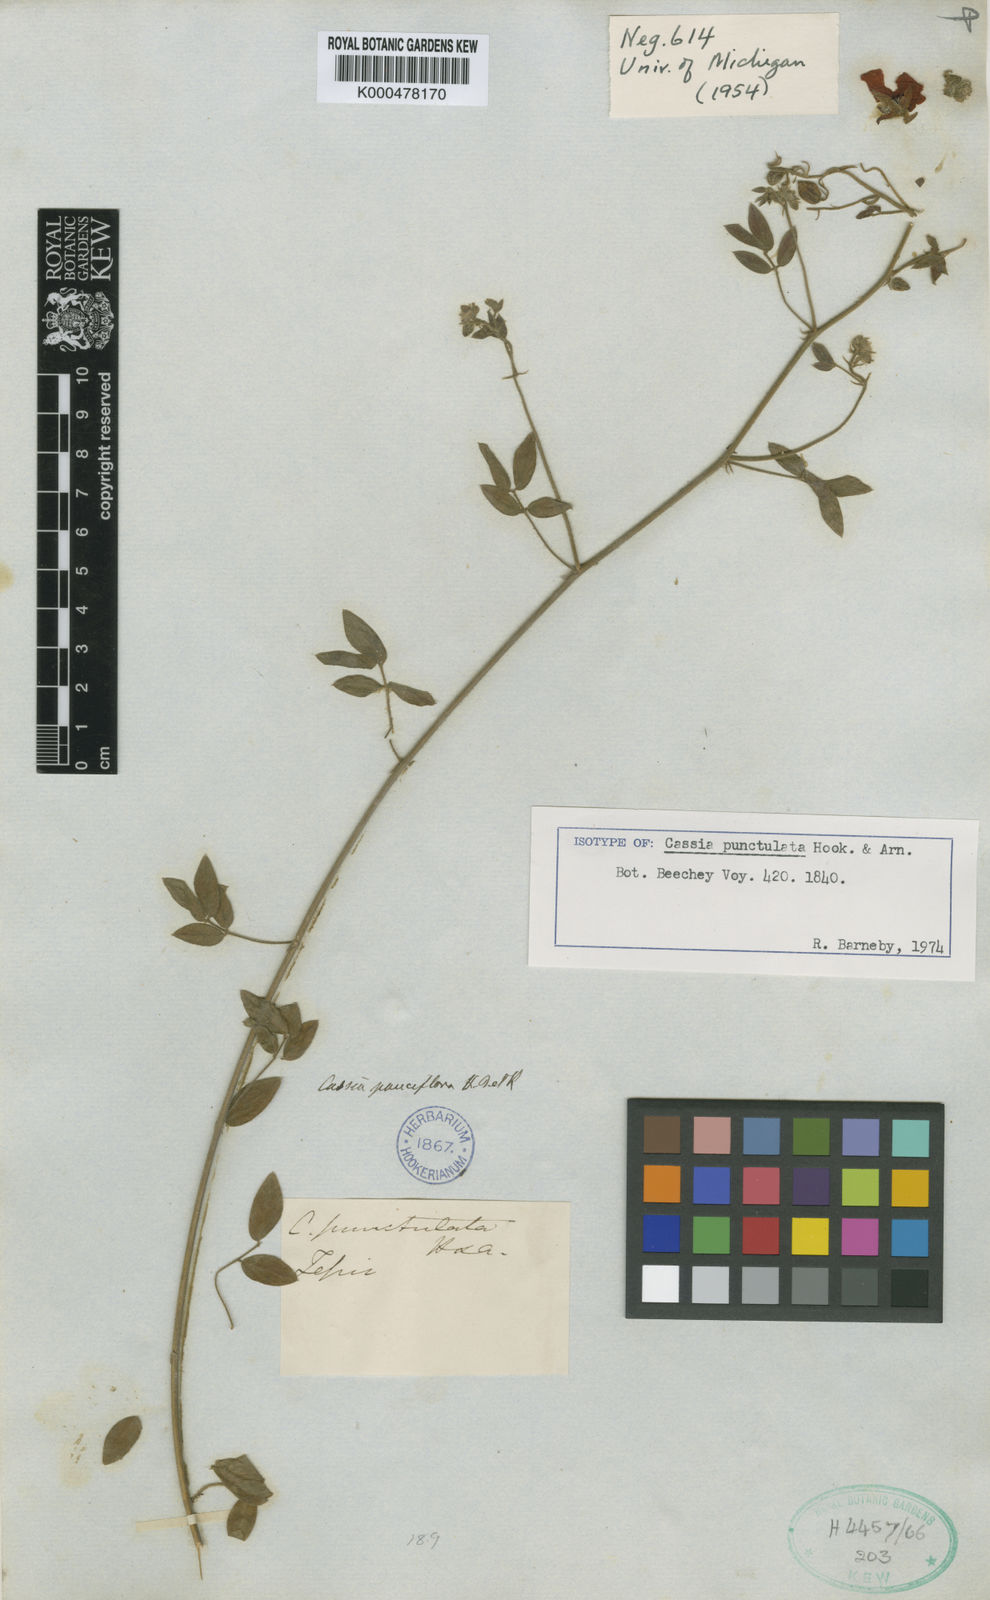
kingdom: Plantae
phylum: Tracheophyta
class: Magnoliopsida
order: Fabales
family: Fabaceae
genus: Chamaecrista
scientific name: Chamaecrista hispidula
